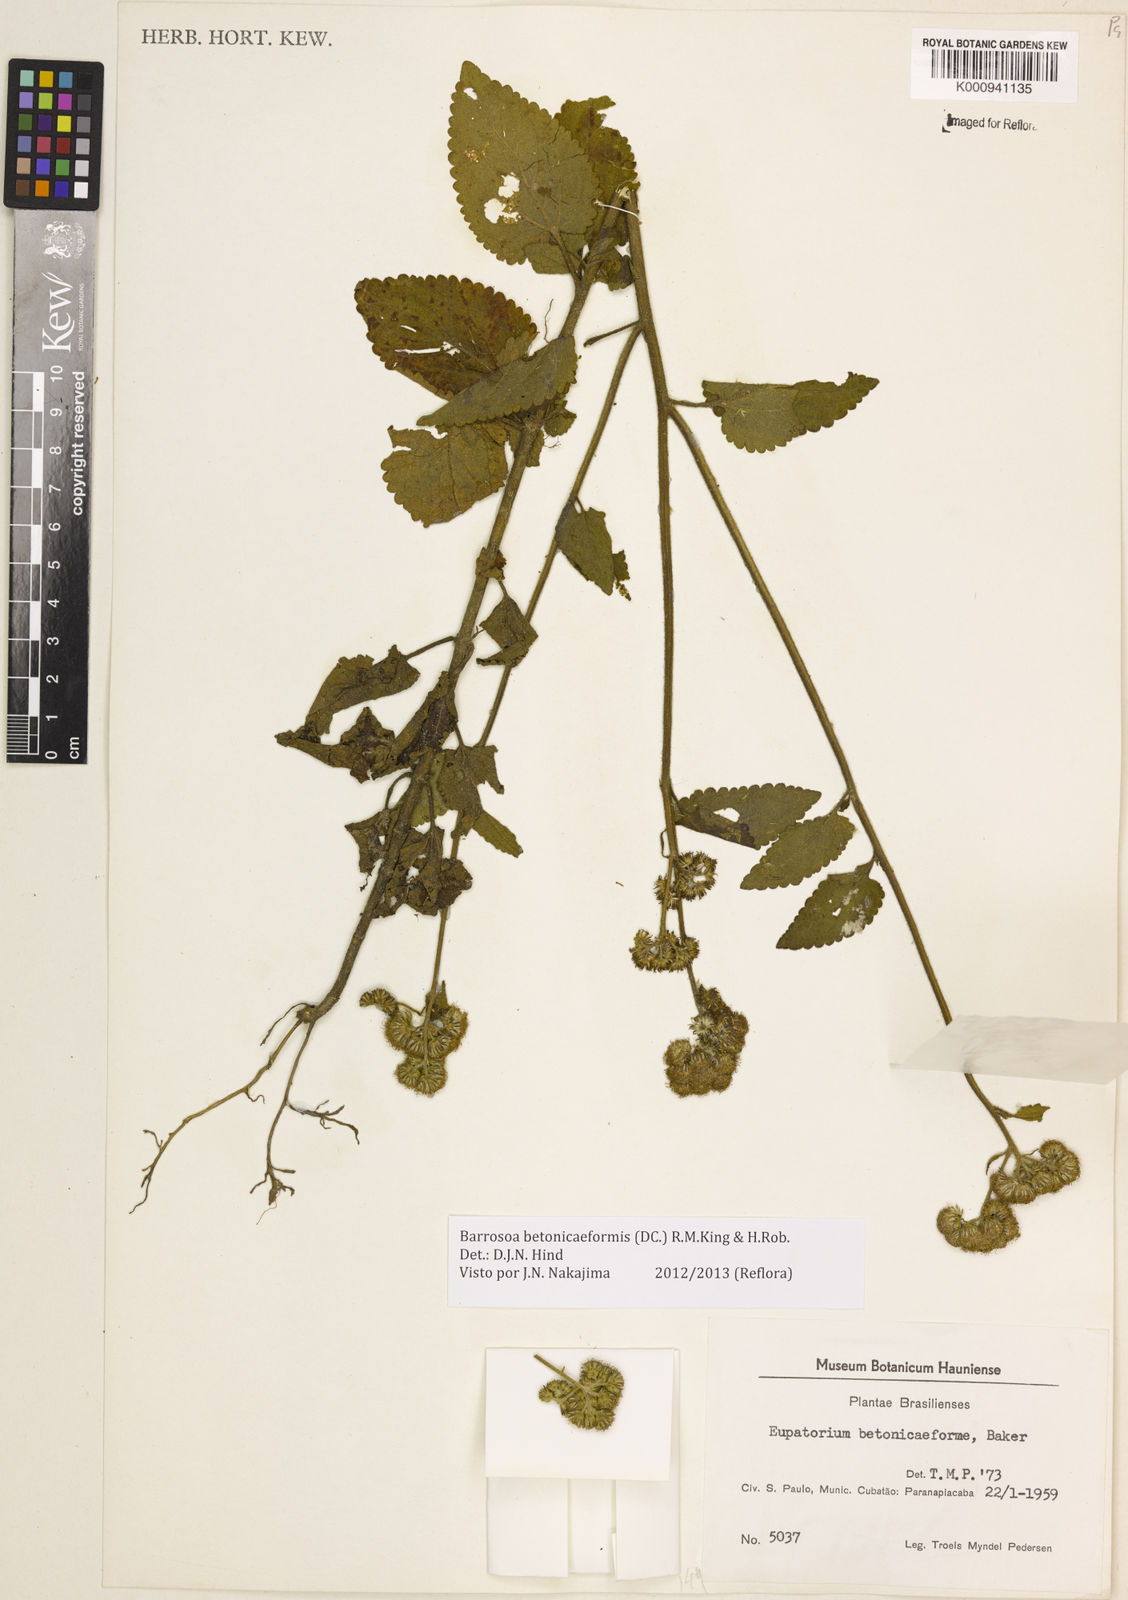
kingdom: Plantae
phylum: Tracheophyta
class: Magnoliopsida
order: Asterales
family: Asteraceae
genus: Barrosoa
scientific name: Barrosoa betoniciformis
